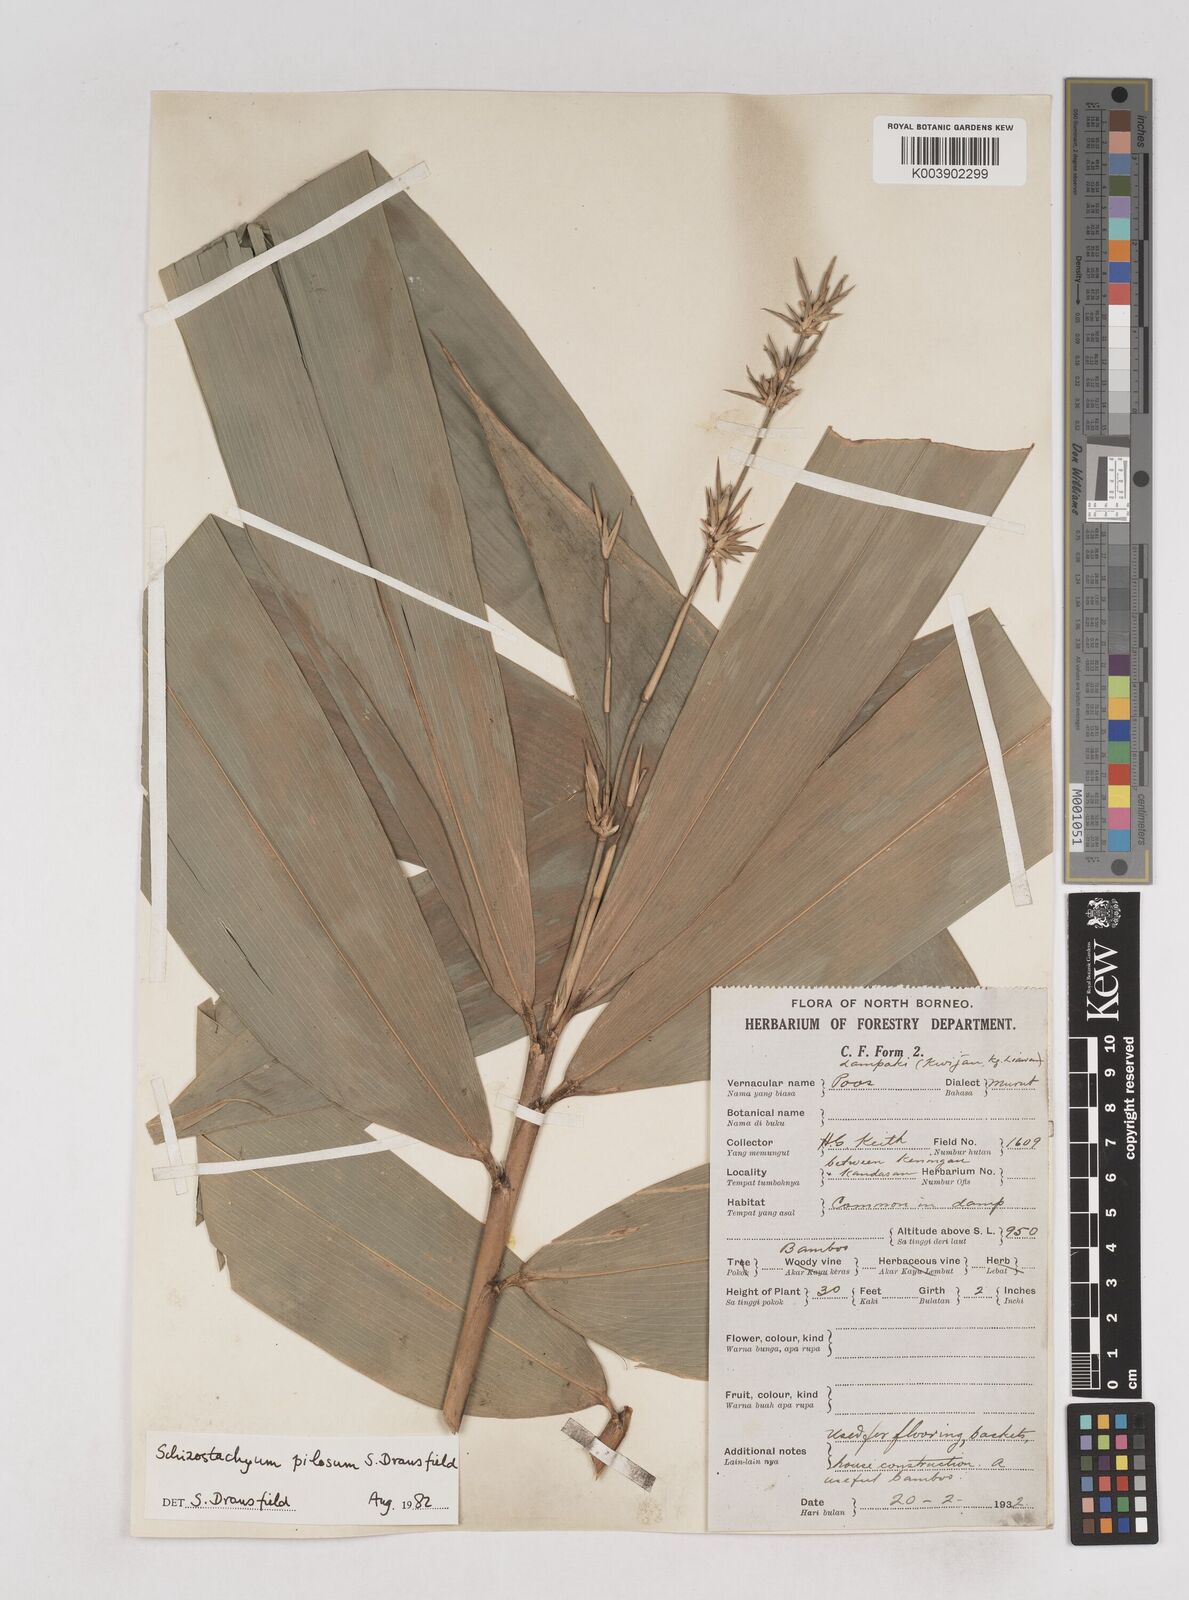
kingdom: Plantae
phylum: Tracheophyta
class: Liliopsida
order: Poales
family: Poaceae
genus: Schizostachyum
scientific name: Schizostachyum pilosum
